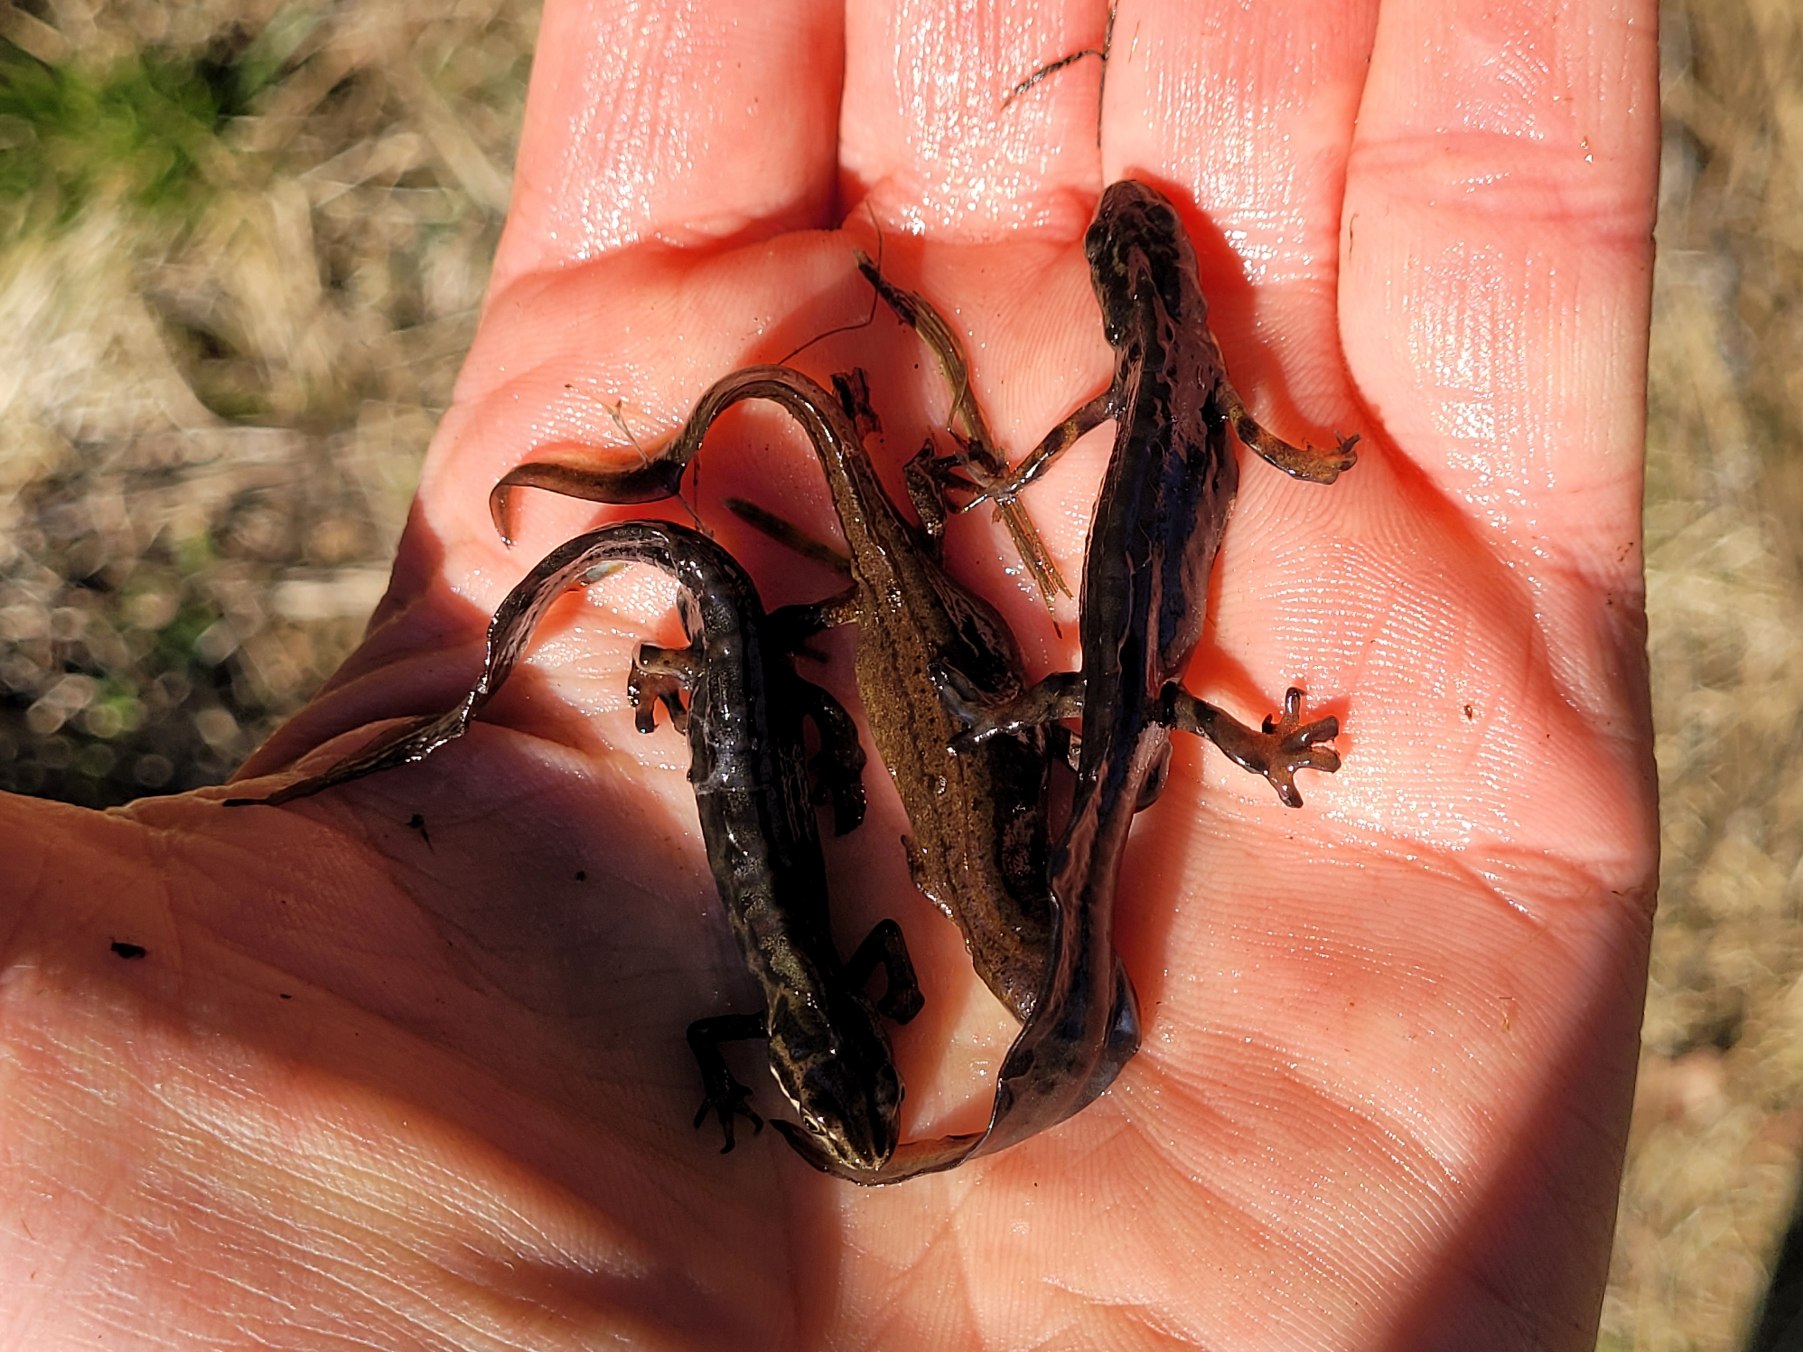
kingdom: Animalia
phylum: Chordata
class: Amphibia
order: Caudata
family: Salamandridae
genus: Lissotriton
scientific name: Lissotriton vulgaris
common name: Lille vandsalamander
